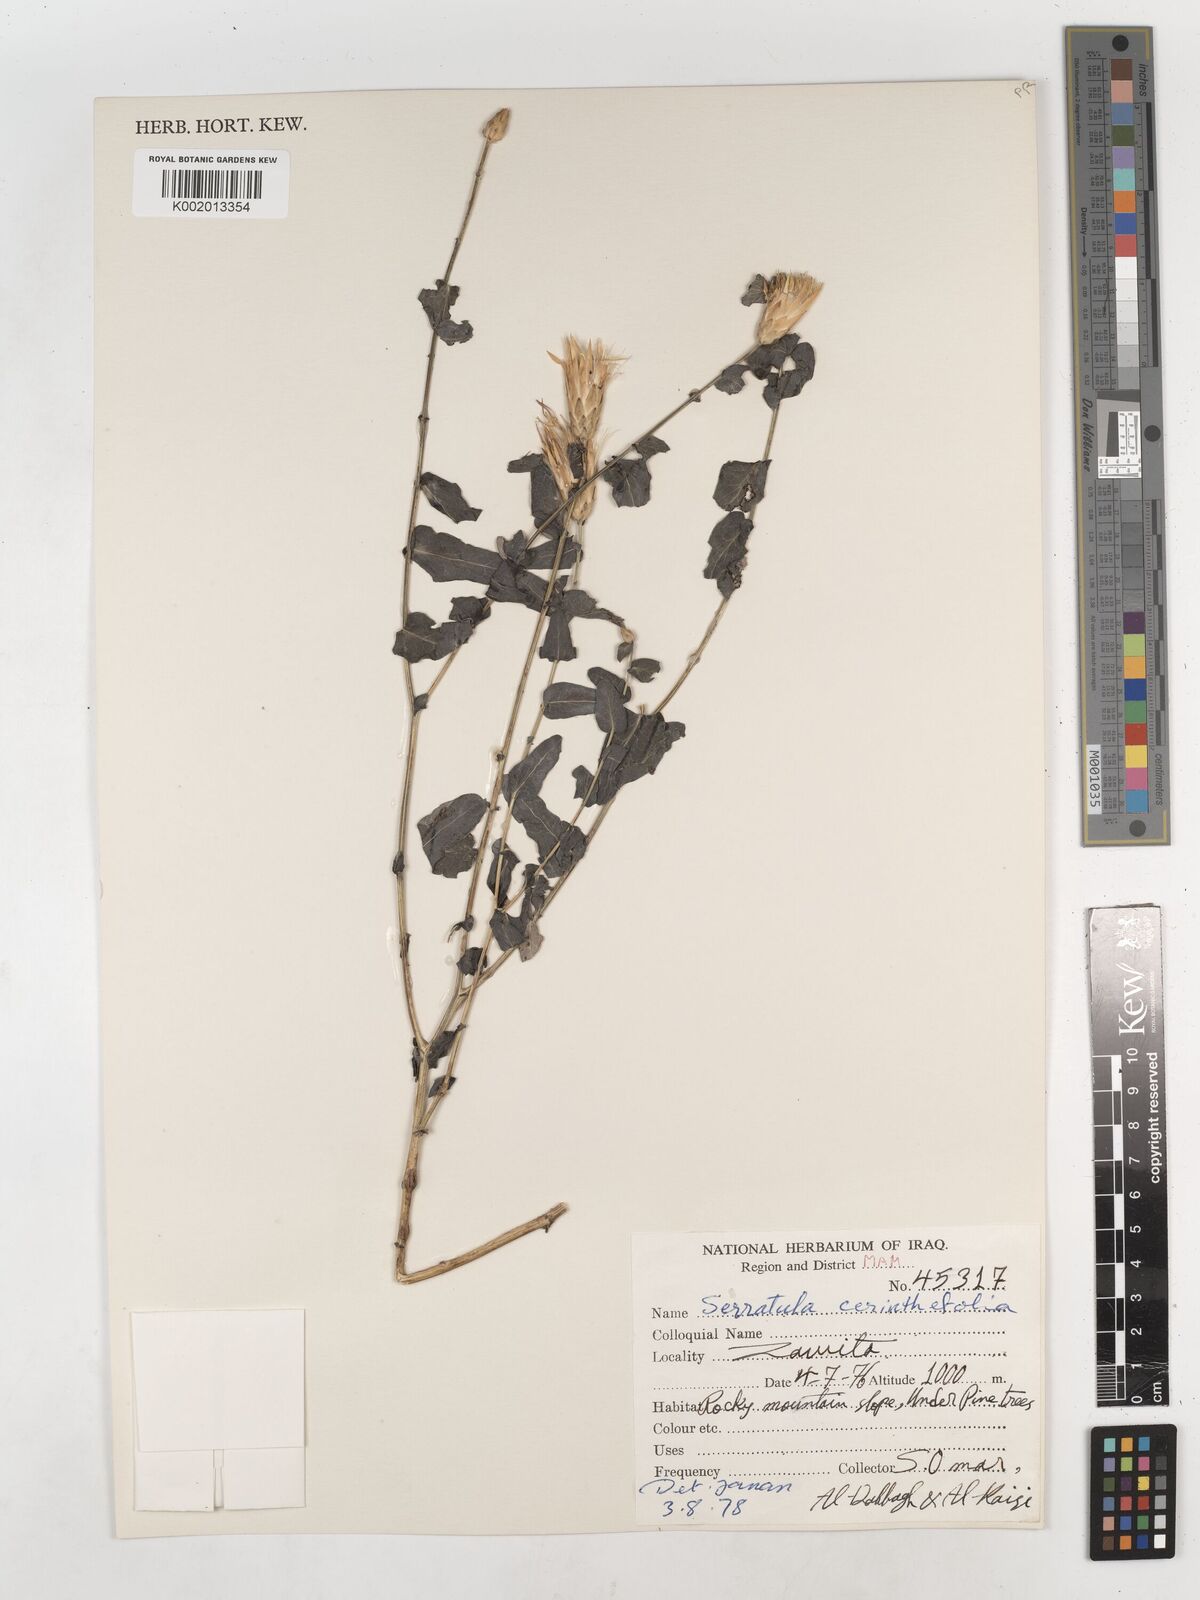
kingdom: Plantae
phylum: Tracheophyta
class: Magnoliopsida
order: Asterales
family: Asteraceae
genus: Klasea
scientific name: Klasea cerinthifolia
